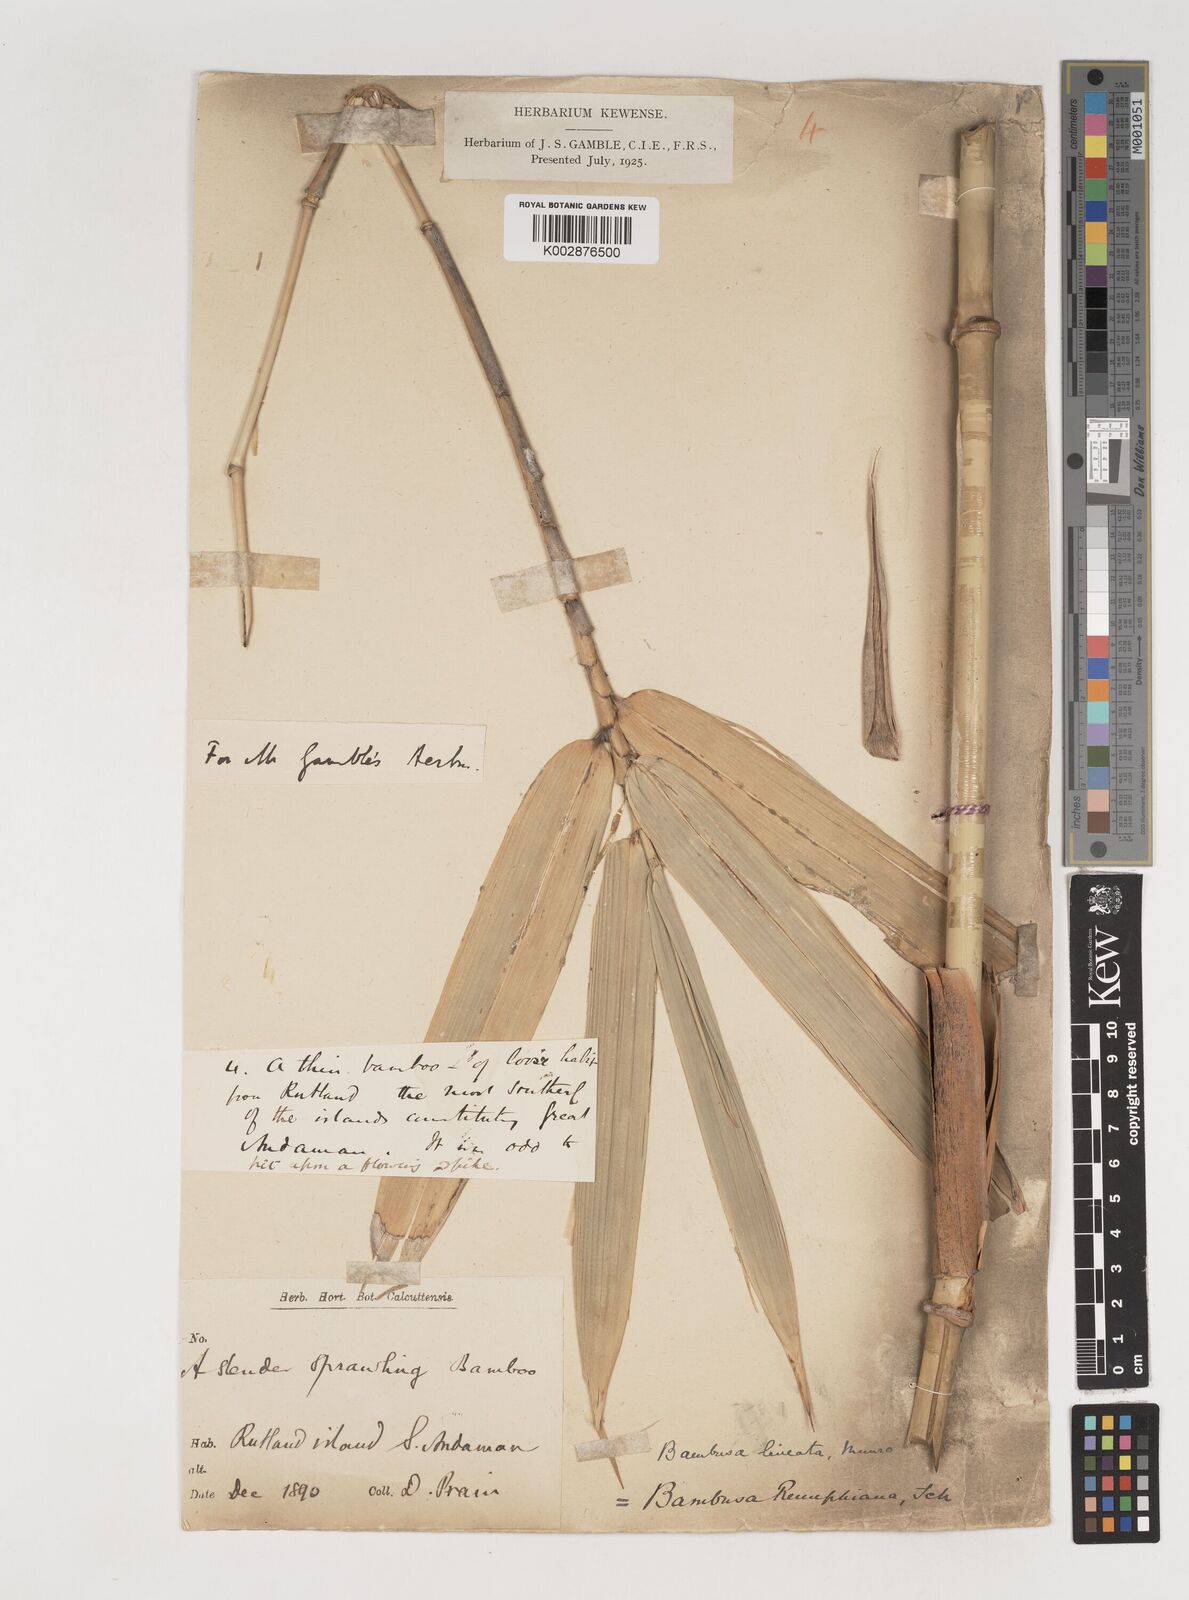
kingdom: Plantae
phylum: Tracheophyta
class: Liliopsida
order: Poales
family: Poaceae
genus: Bambusa
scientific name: Bambusa
